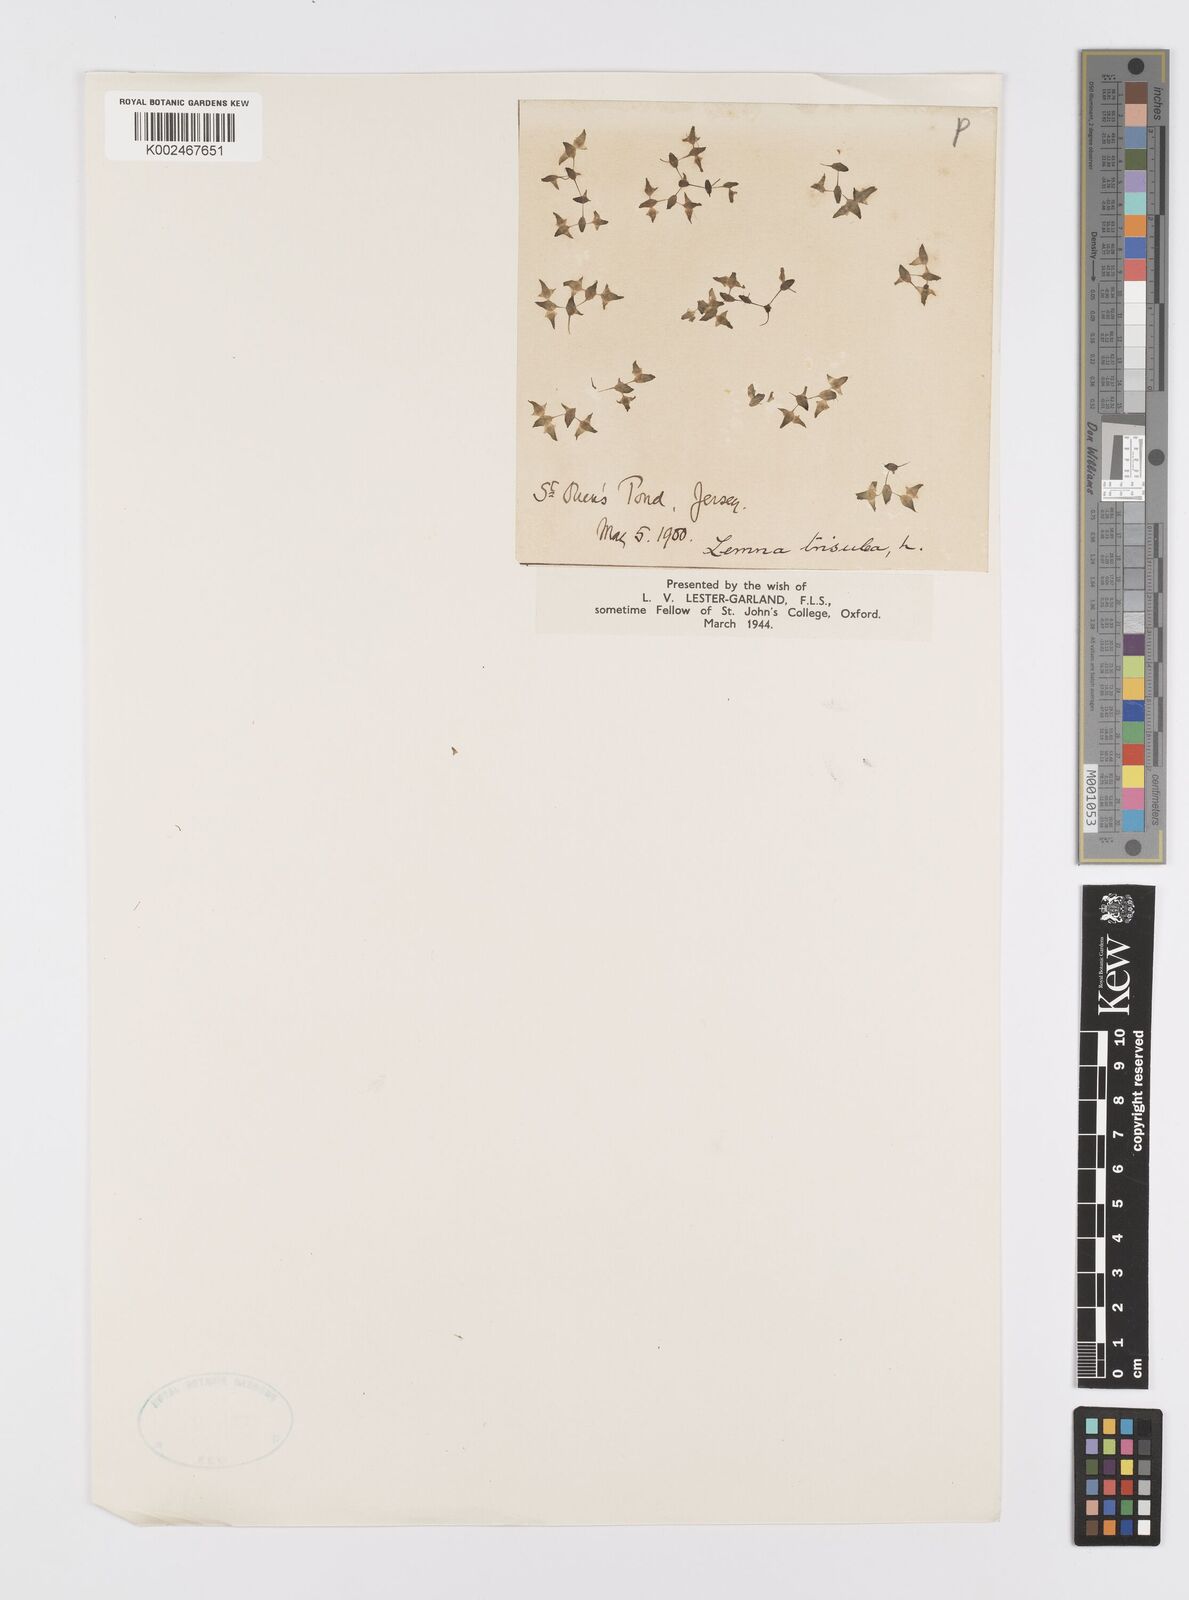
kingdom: Plantae
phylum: Tracheophyta
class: Liliopsida
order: Alismatales
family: Araceae
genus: Lemna
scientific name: Lemna trisulca
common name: Ivy-leaved duckweed
